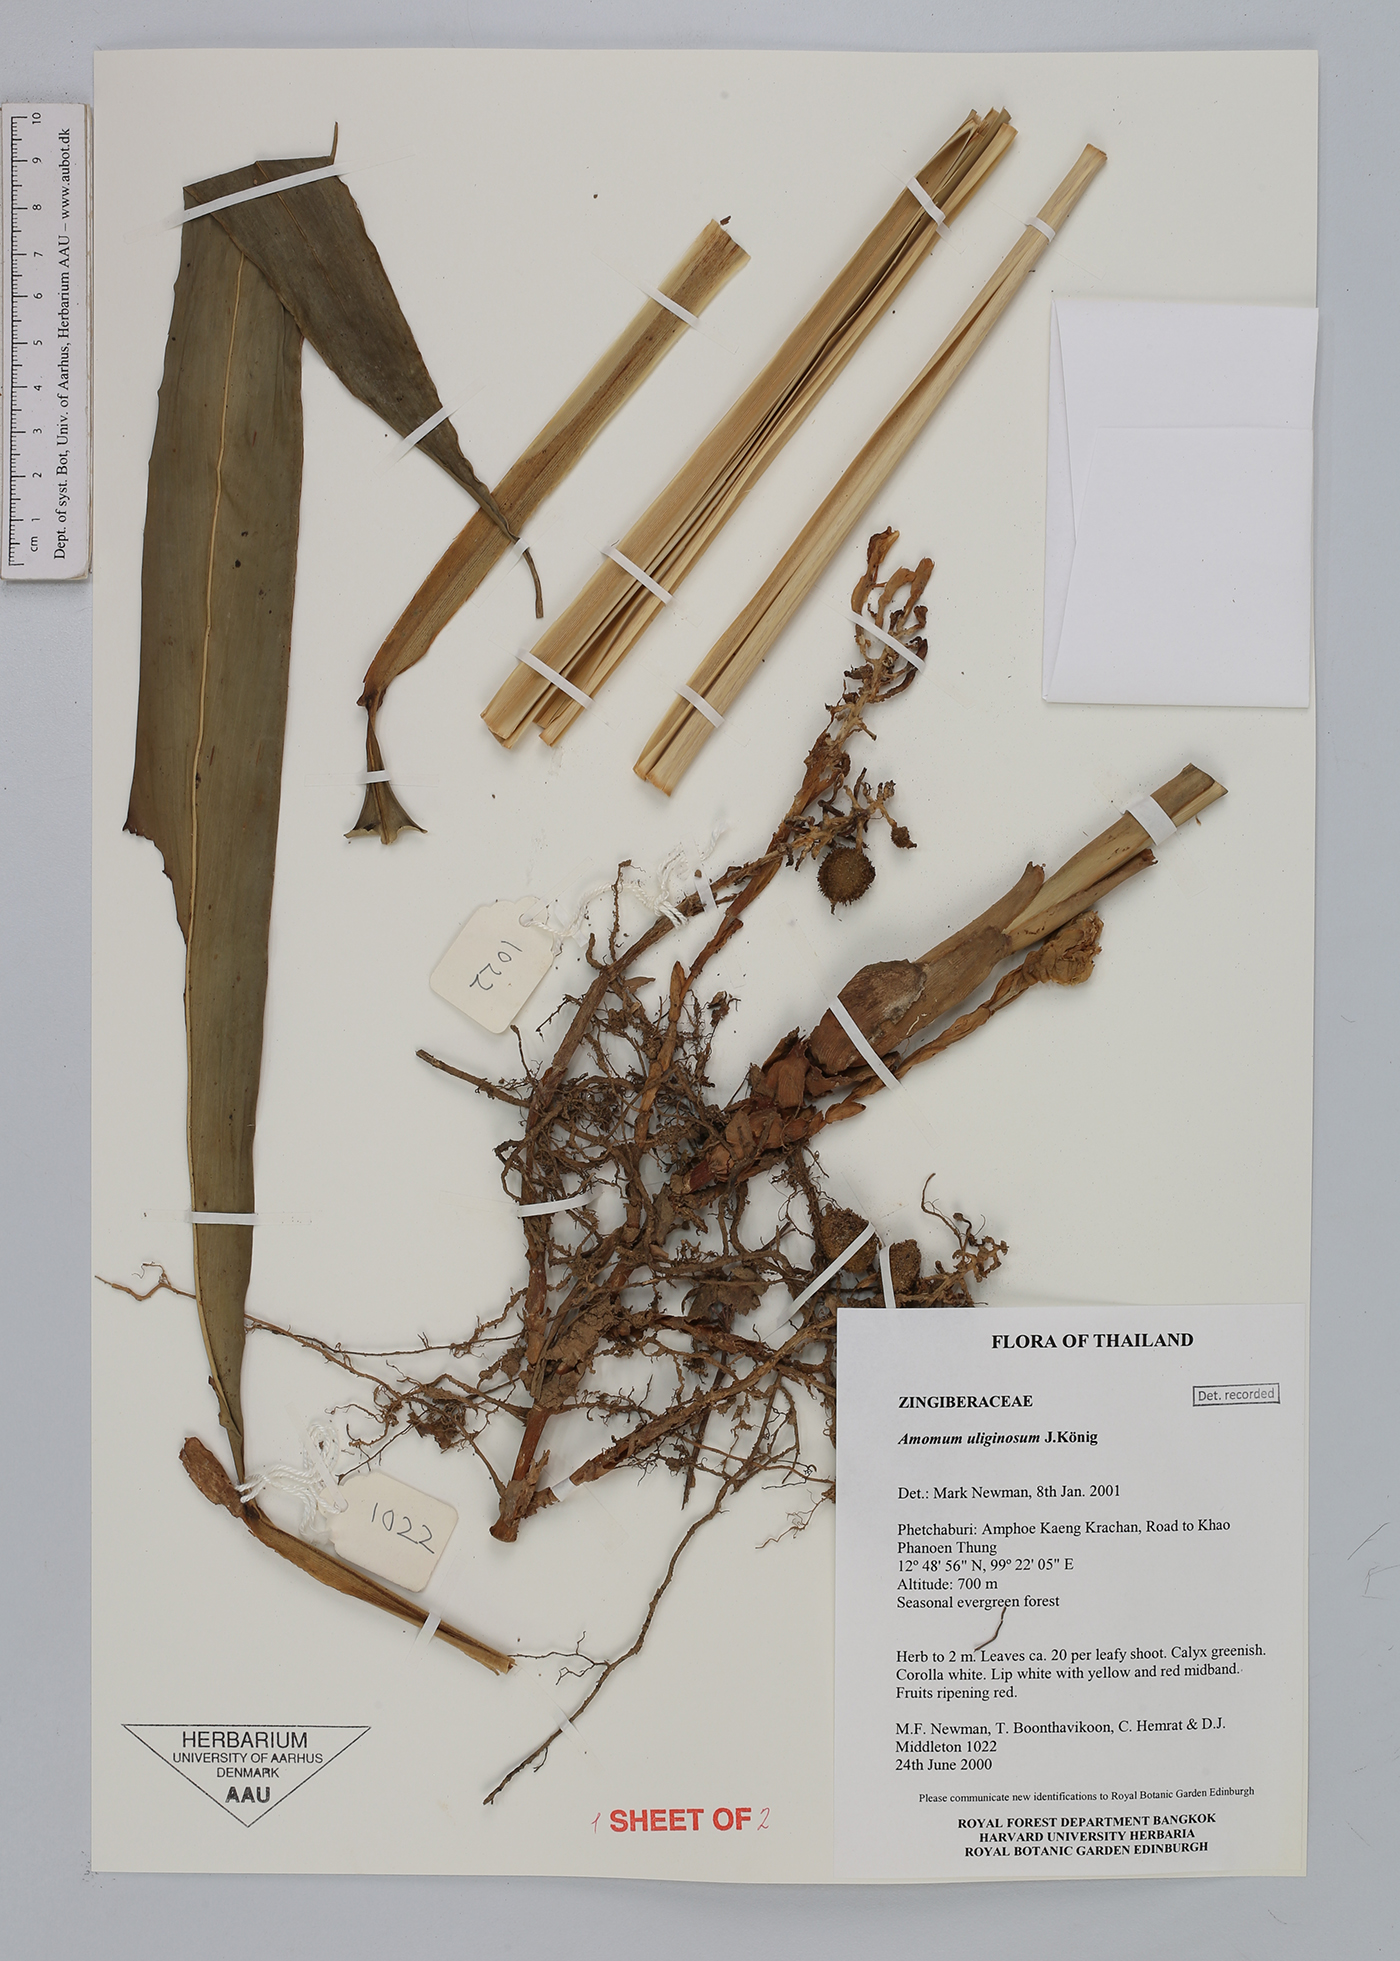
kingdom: Plantae
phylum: Tracheophyta
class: Liliopsida
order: Zingiberales
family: Zingiberaceae
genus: Wurfbainia
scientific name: Wurfbainia uliginosa
